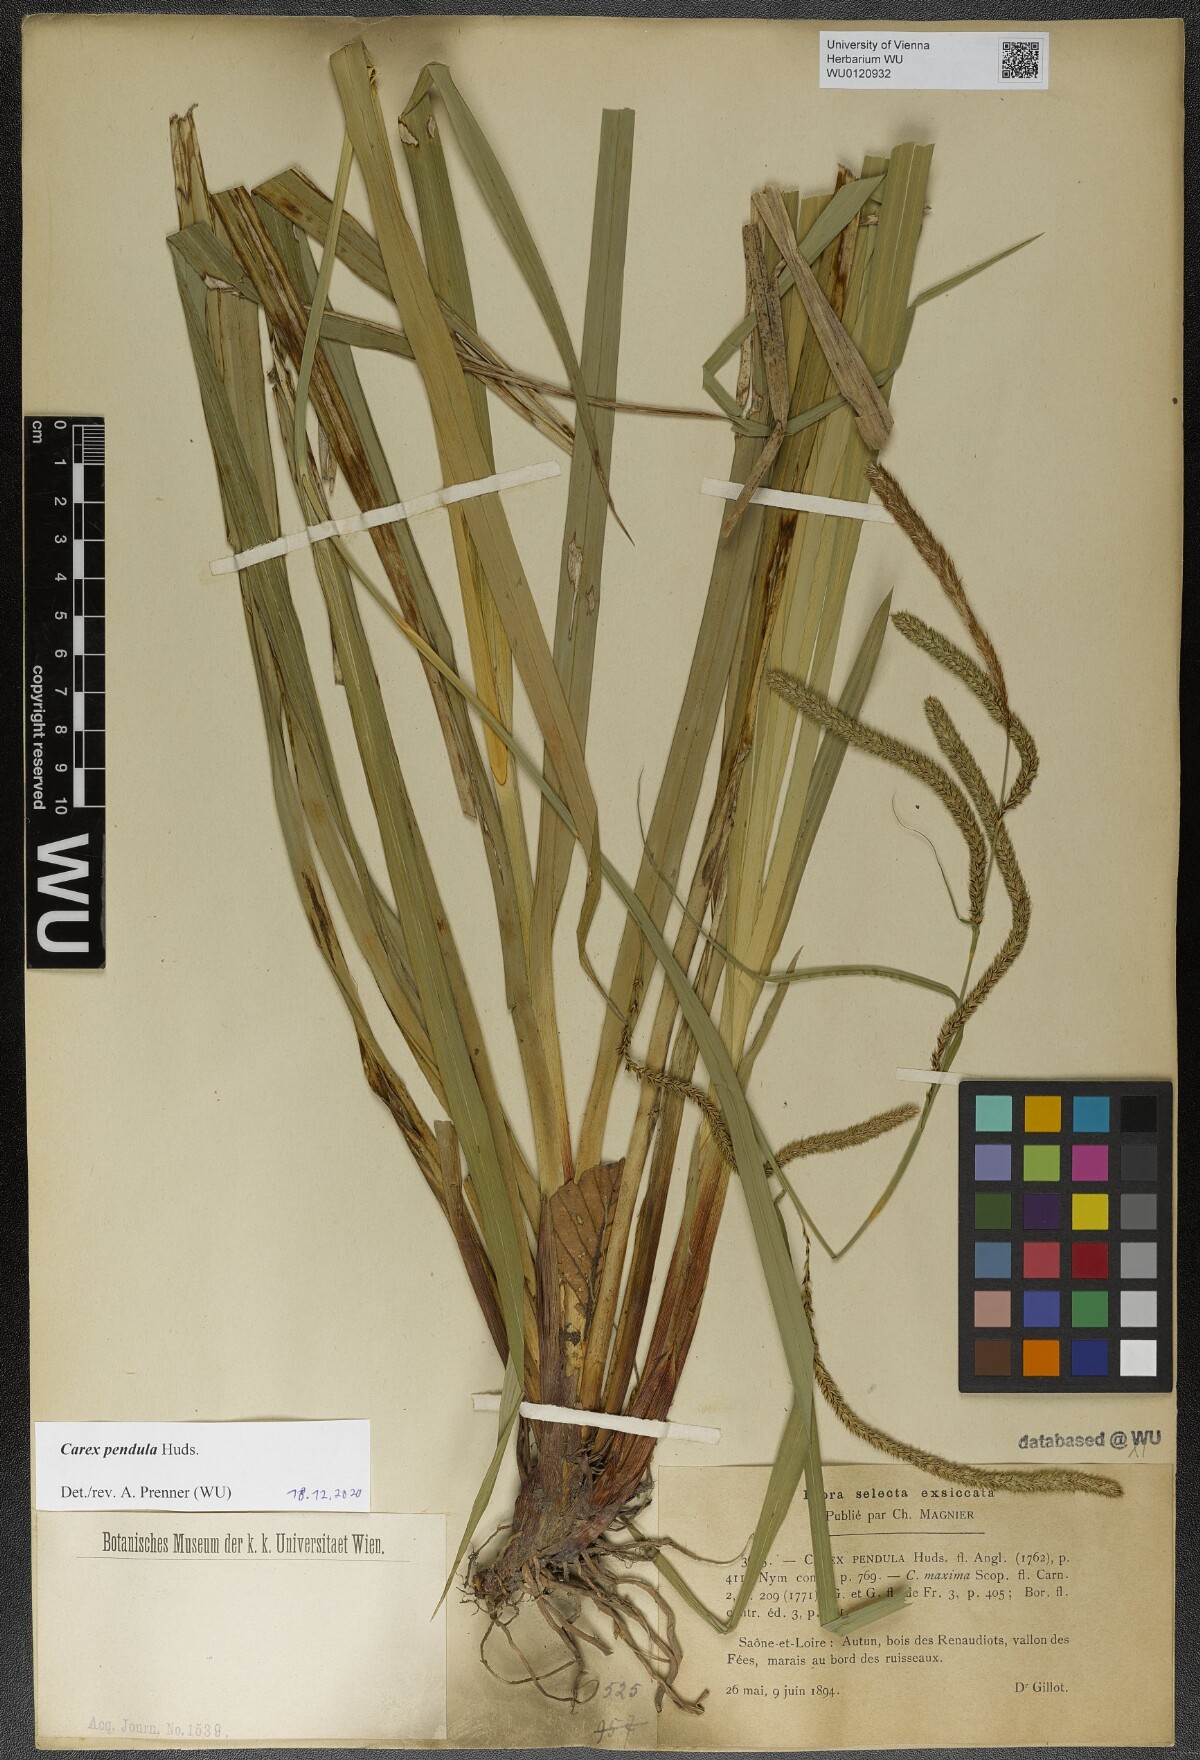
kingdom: Plantae
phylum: Tracheophyta
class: Liliopsida
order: Poales
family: Cyperaceae
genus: Carex
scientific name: Carex pendula
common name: Pendulous sedge
